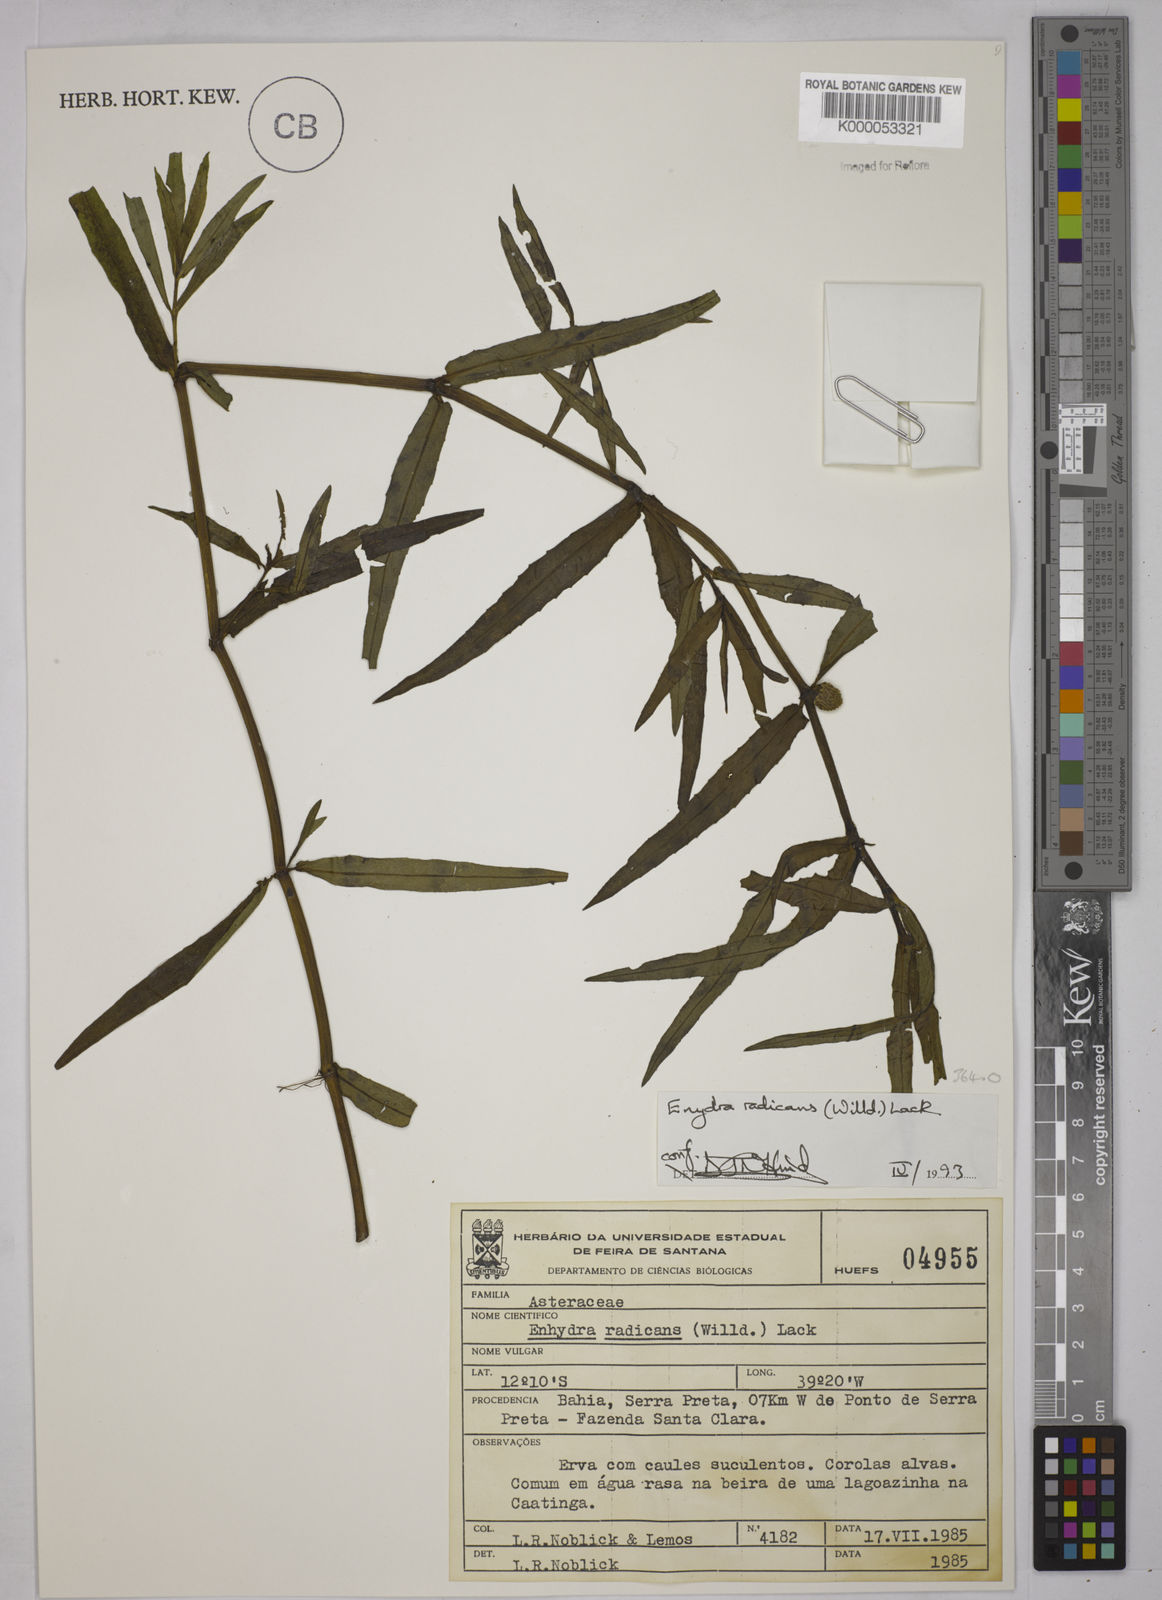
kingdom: Plantae
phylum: Tracheophyta
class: Magnoliopsida
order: Asterales
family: Asteraceae
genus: Enydra
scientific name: Enydra radicans
